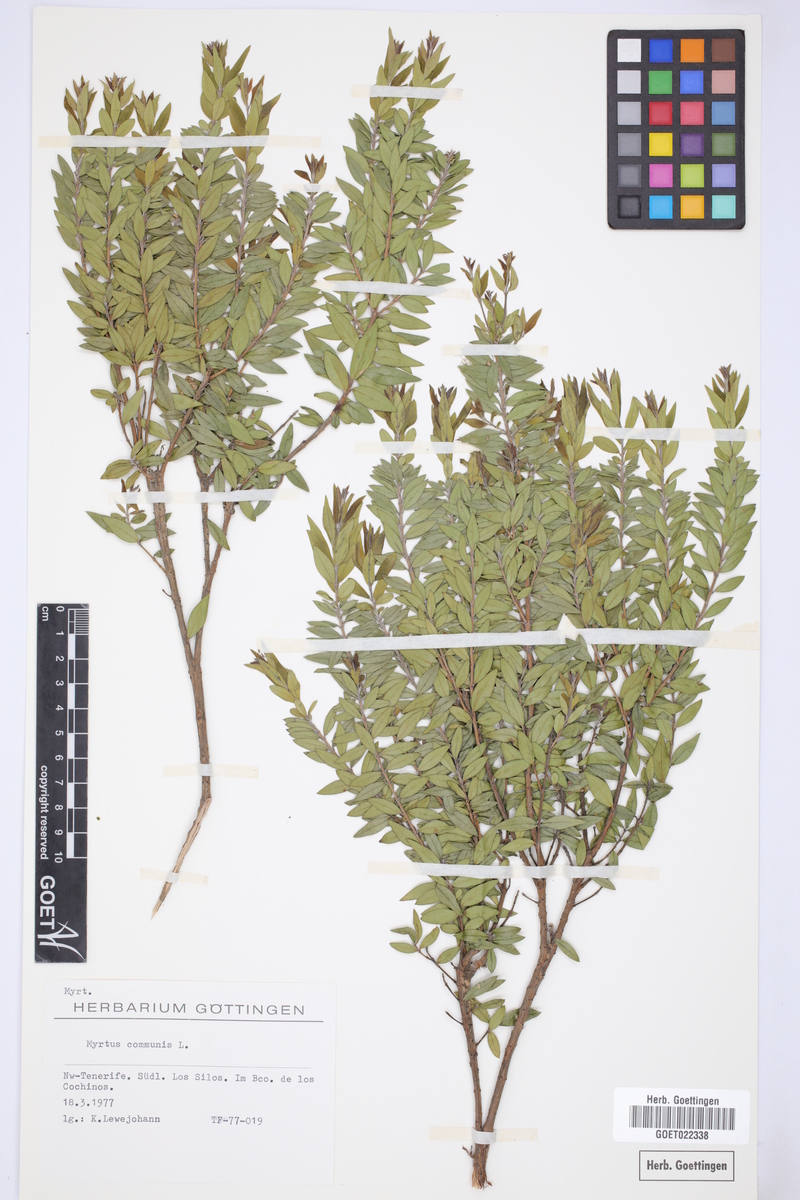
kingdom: Plantae
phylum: Tracheophyta
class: Magnoliopsida
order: Myrtales
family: Myrtaceae
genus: Myrtus
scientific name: Myrtus communis
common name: Myrtle
